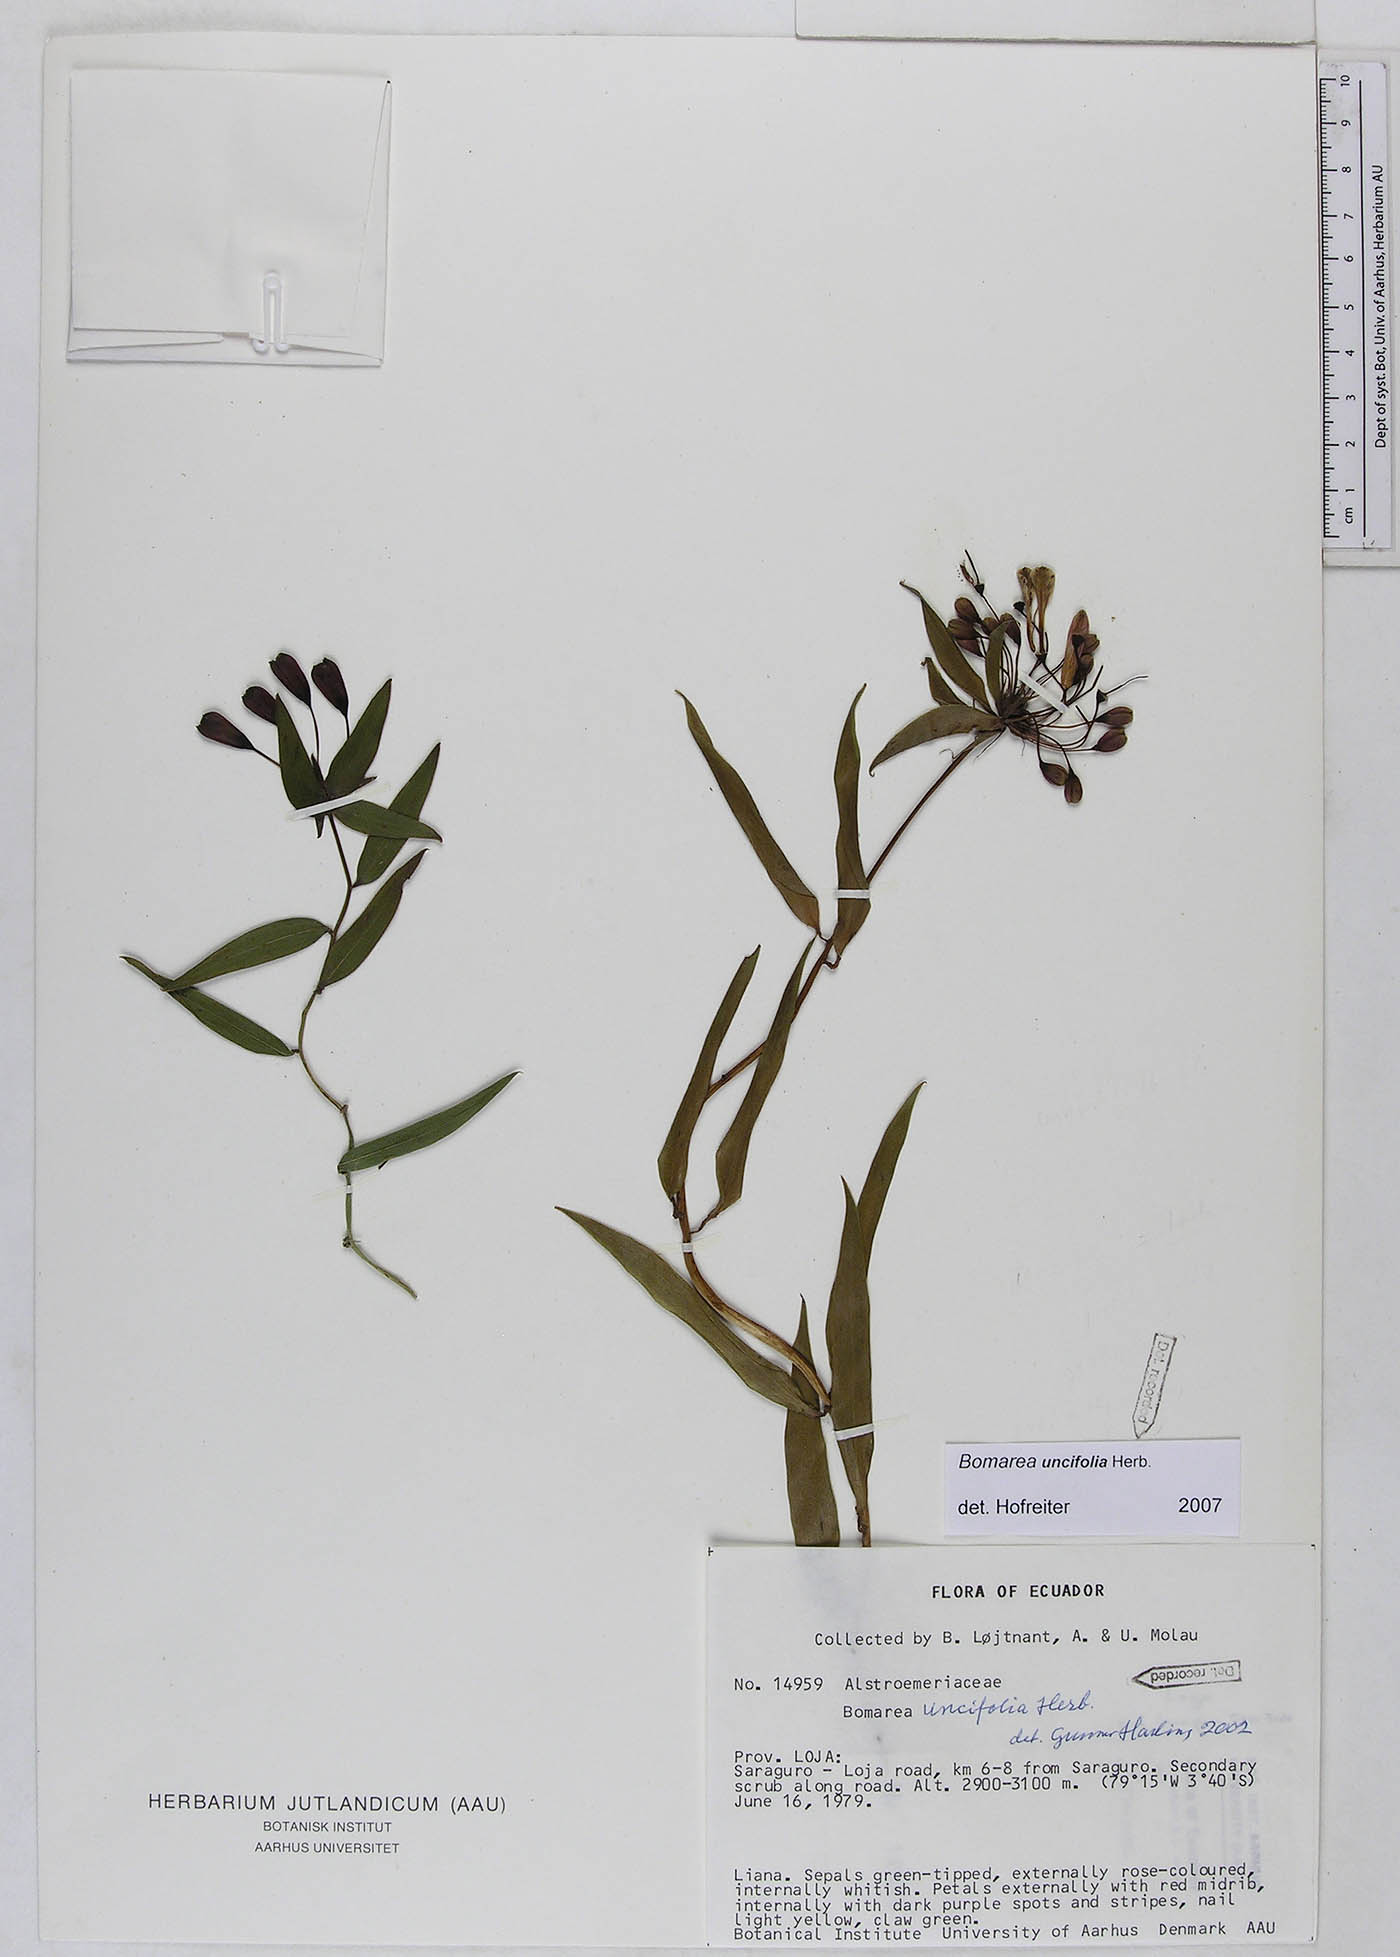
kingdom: Plantae
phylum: Tracheophyta
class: Liliopsida
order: Liliales
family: Alstroemeriaceae
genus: Bomarea
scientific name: Bomarea uncifolia
